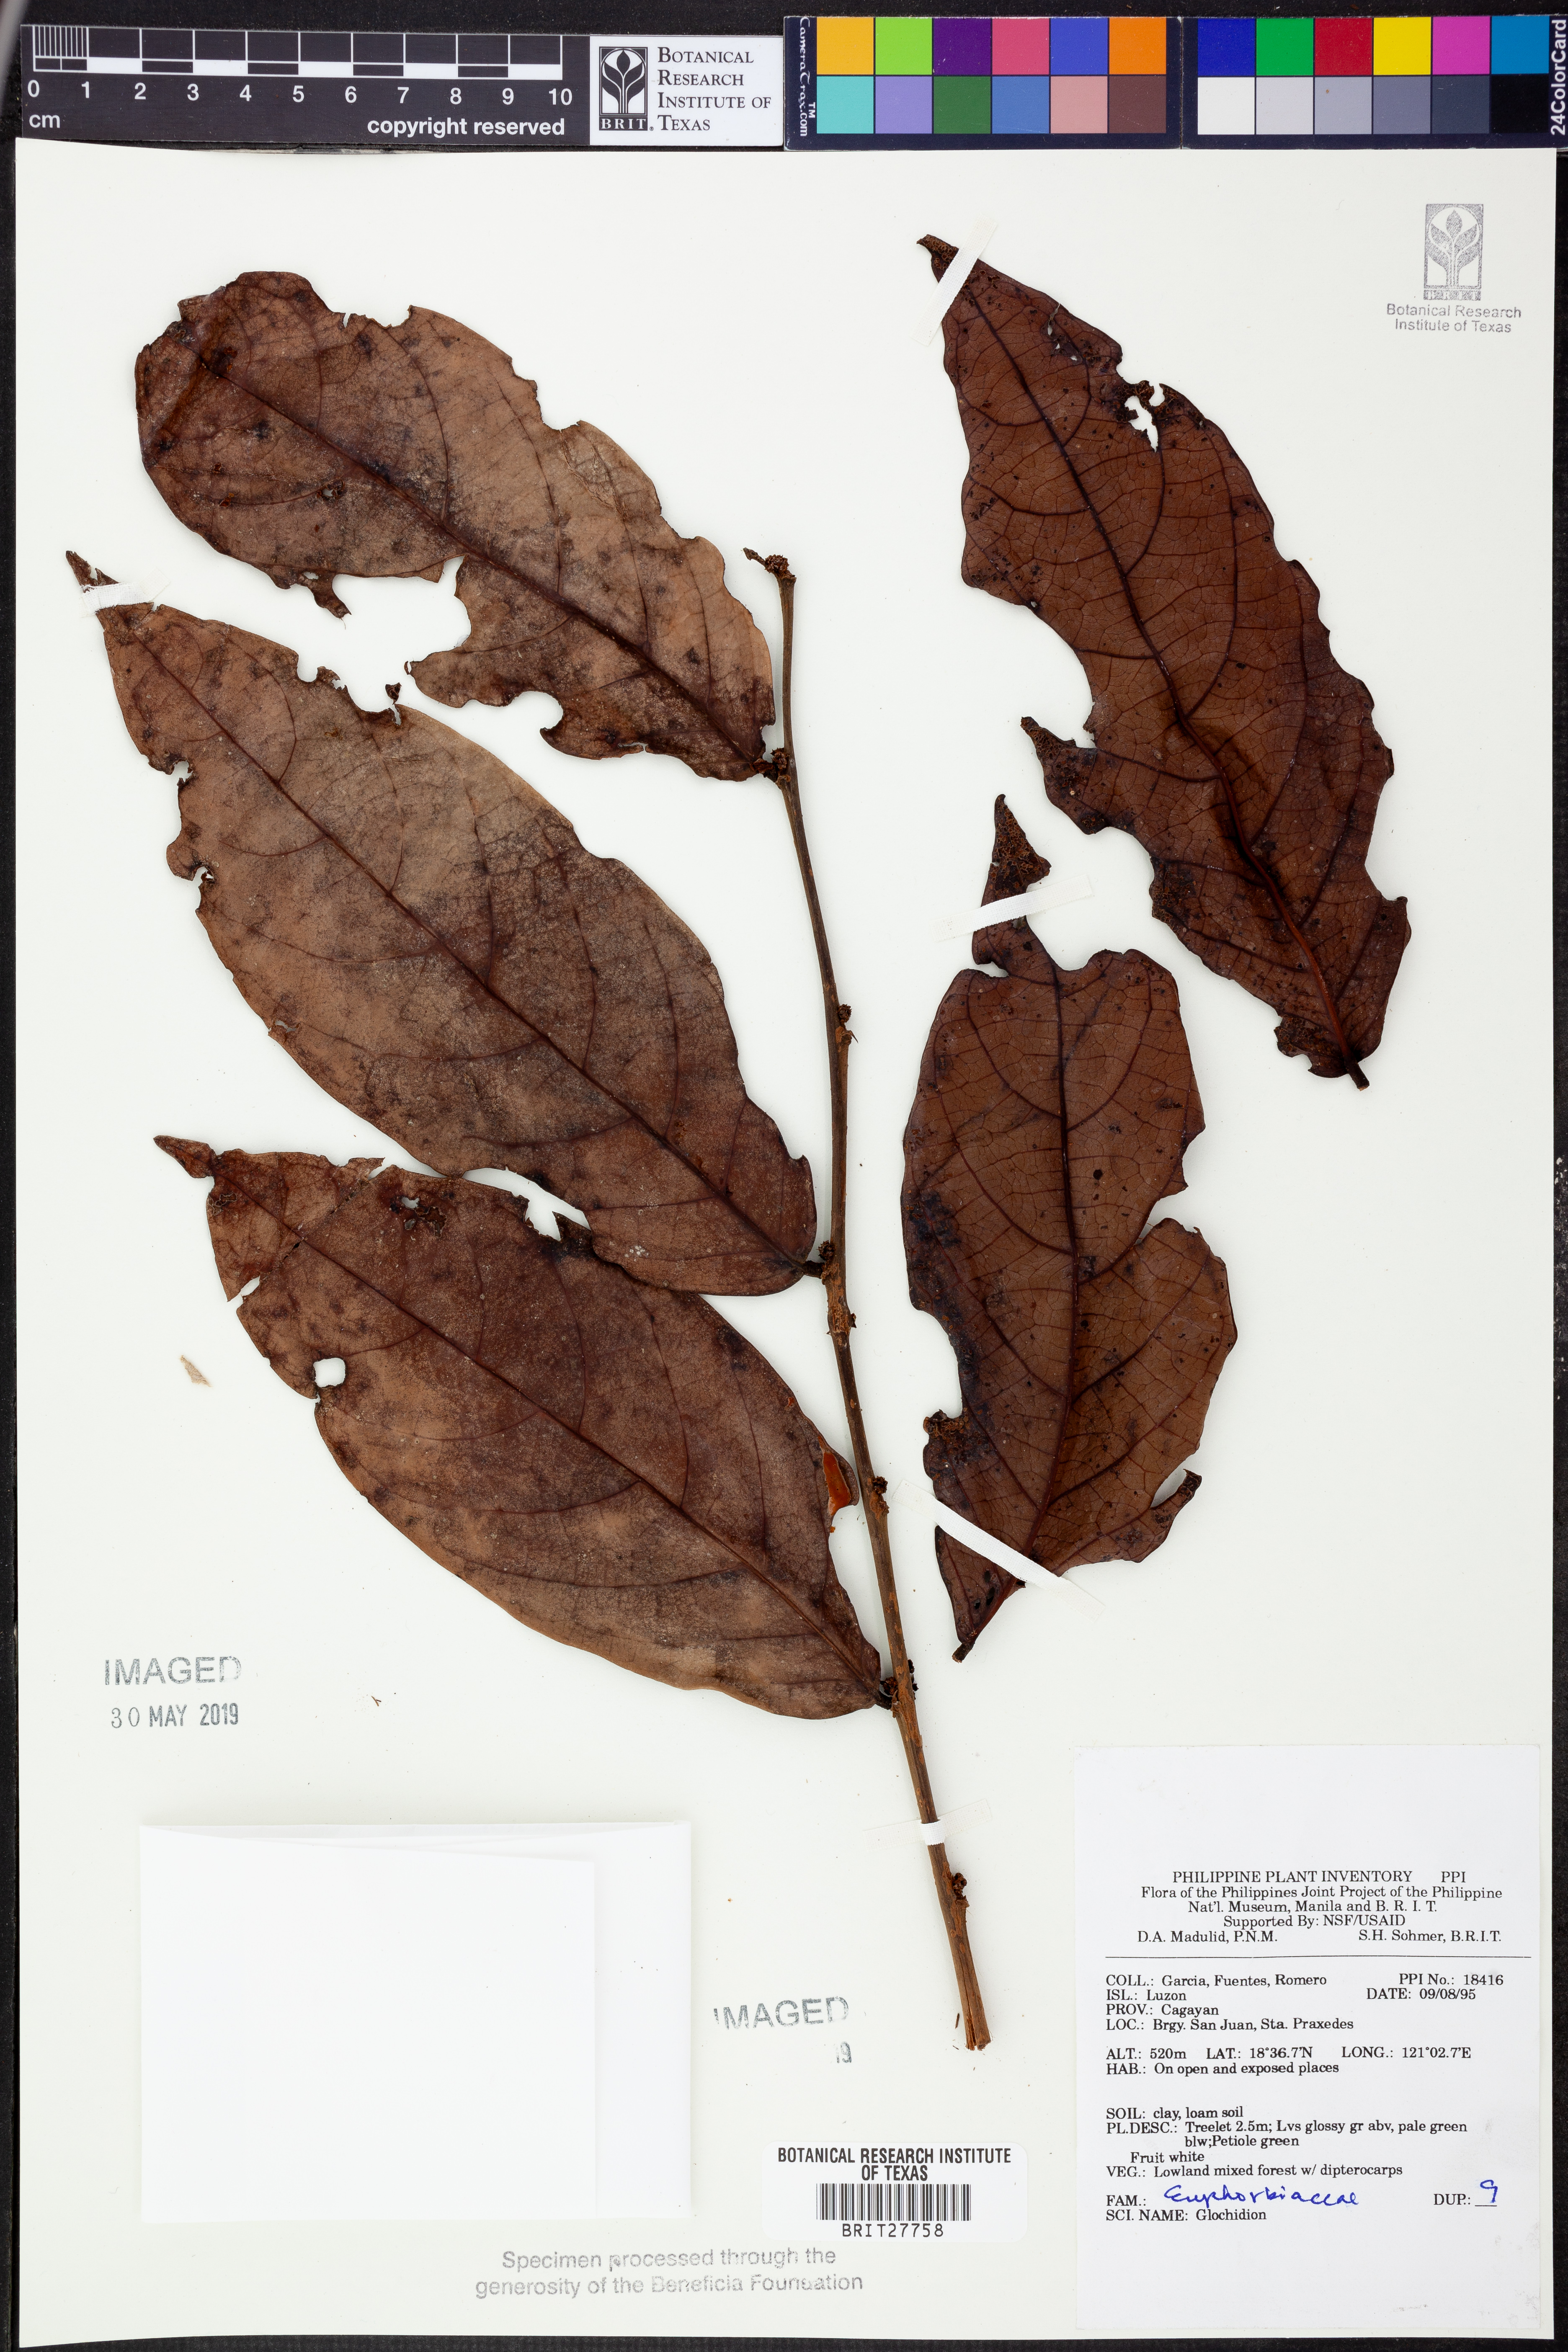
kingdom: Plantae
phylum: Tracheophyta
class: Magnoliopsida
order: Malpighiales
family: Phyllanthaceae
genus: Glochidion
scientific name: Glochidion
